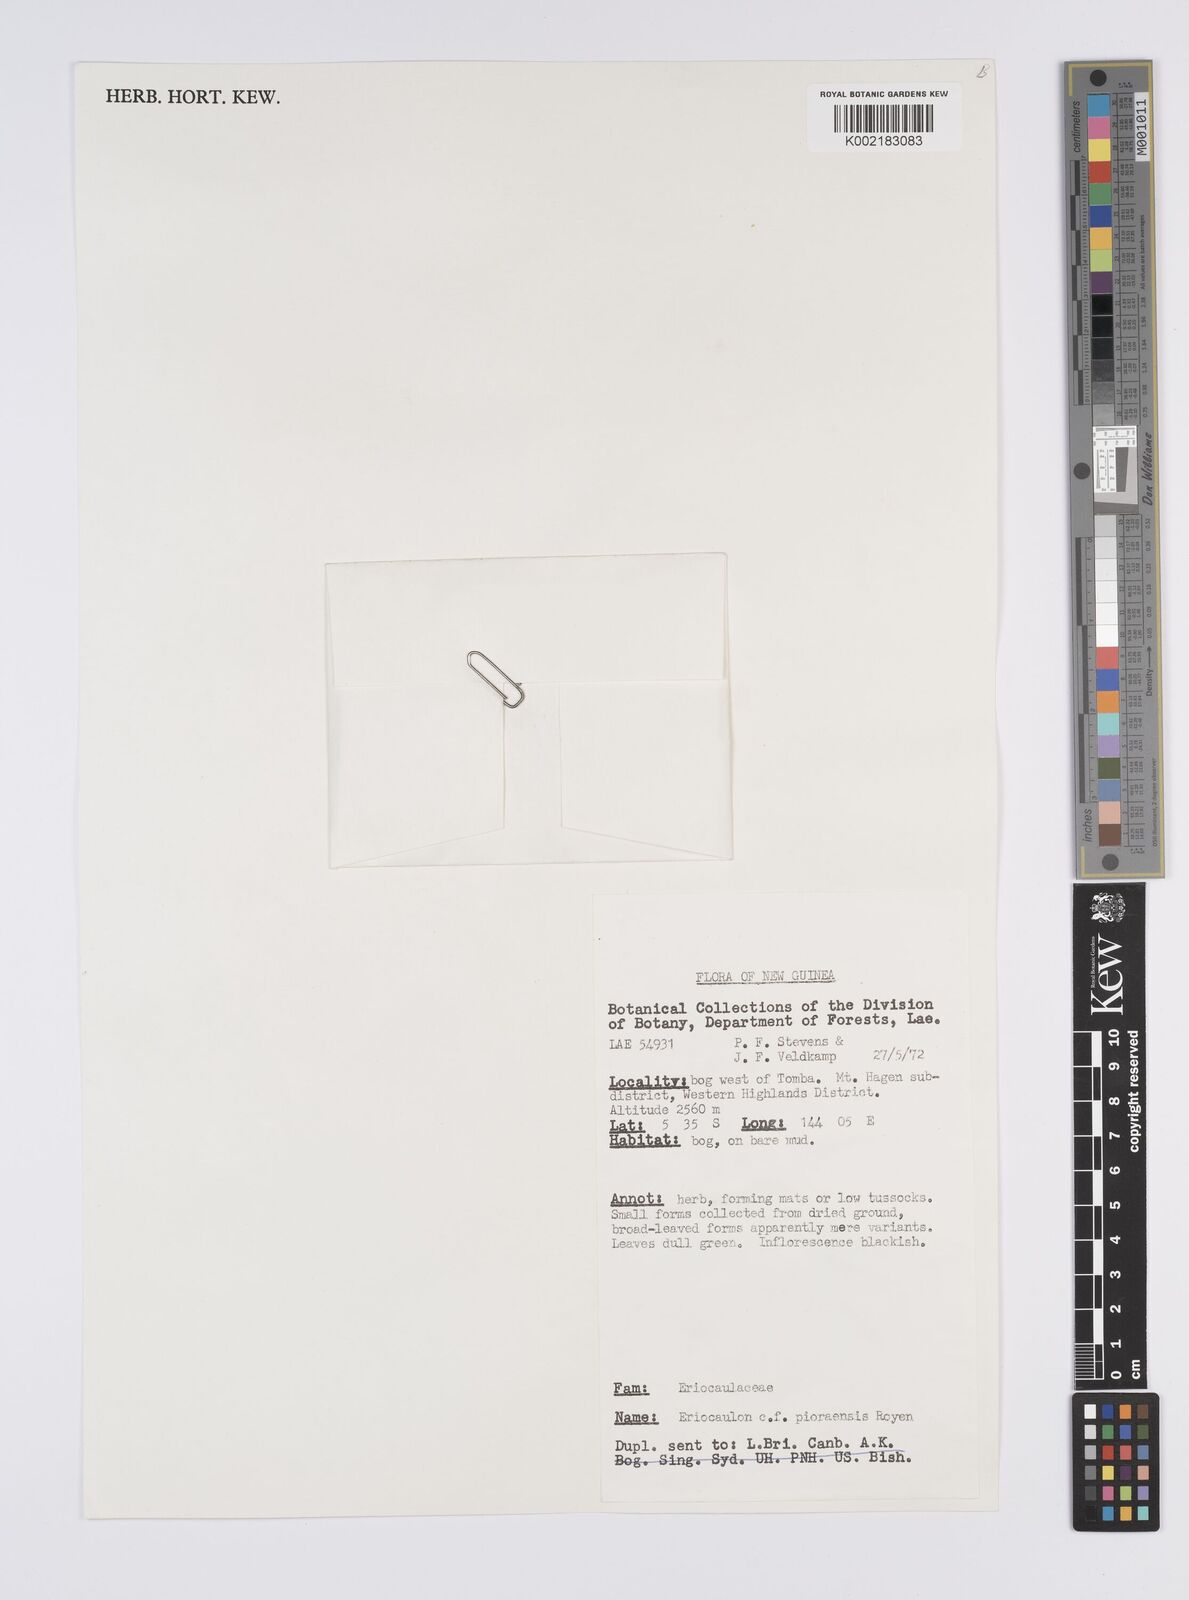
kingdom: Plantae
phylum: Tracheophyta
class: Liliopsida
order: Poales
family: Eriocaulaceae
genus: Eriocaulon
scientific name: Eriocaulon
